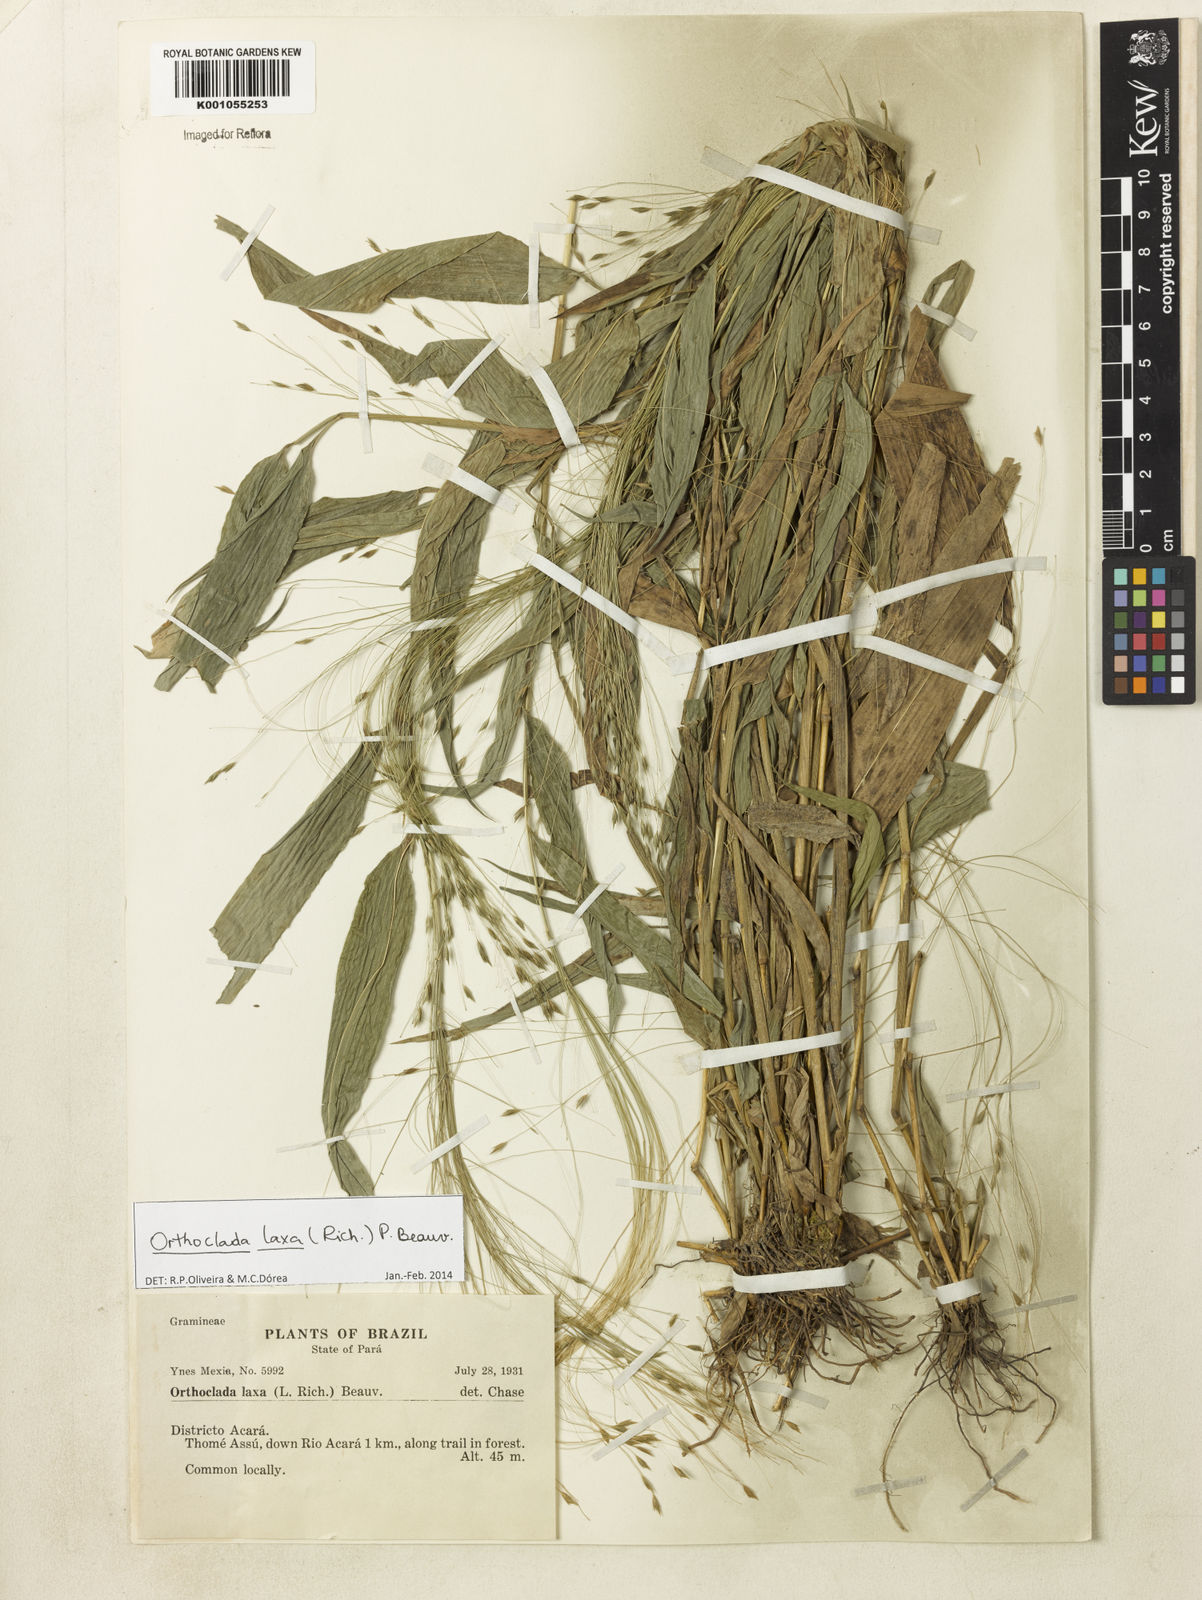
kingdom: Plantae
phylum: Tracheophyta
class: Liliopsida
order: Poales
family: Poaceae
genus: Orthoclada
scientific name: Orthoclada laxa
